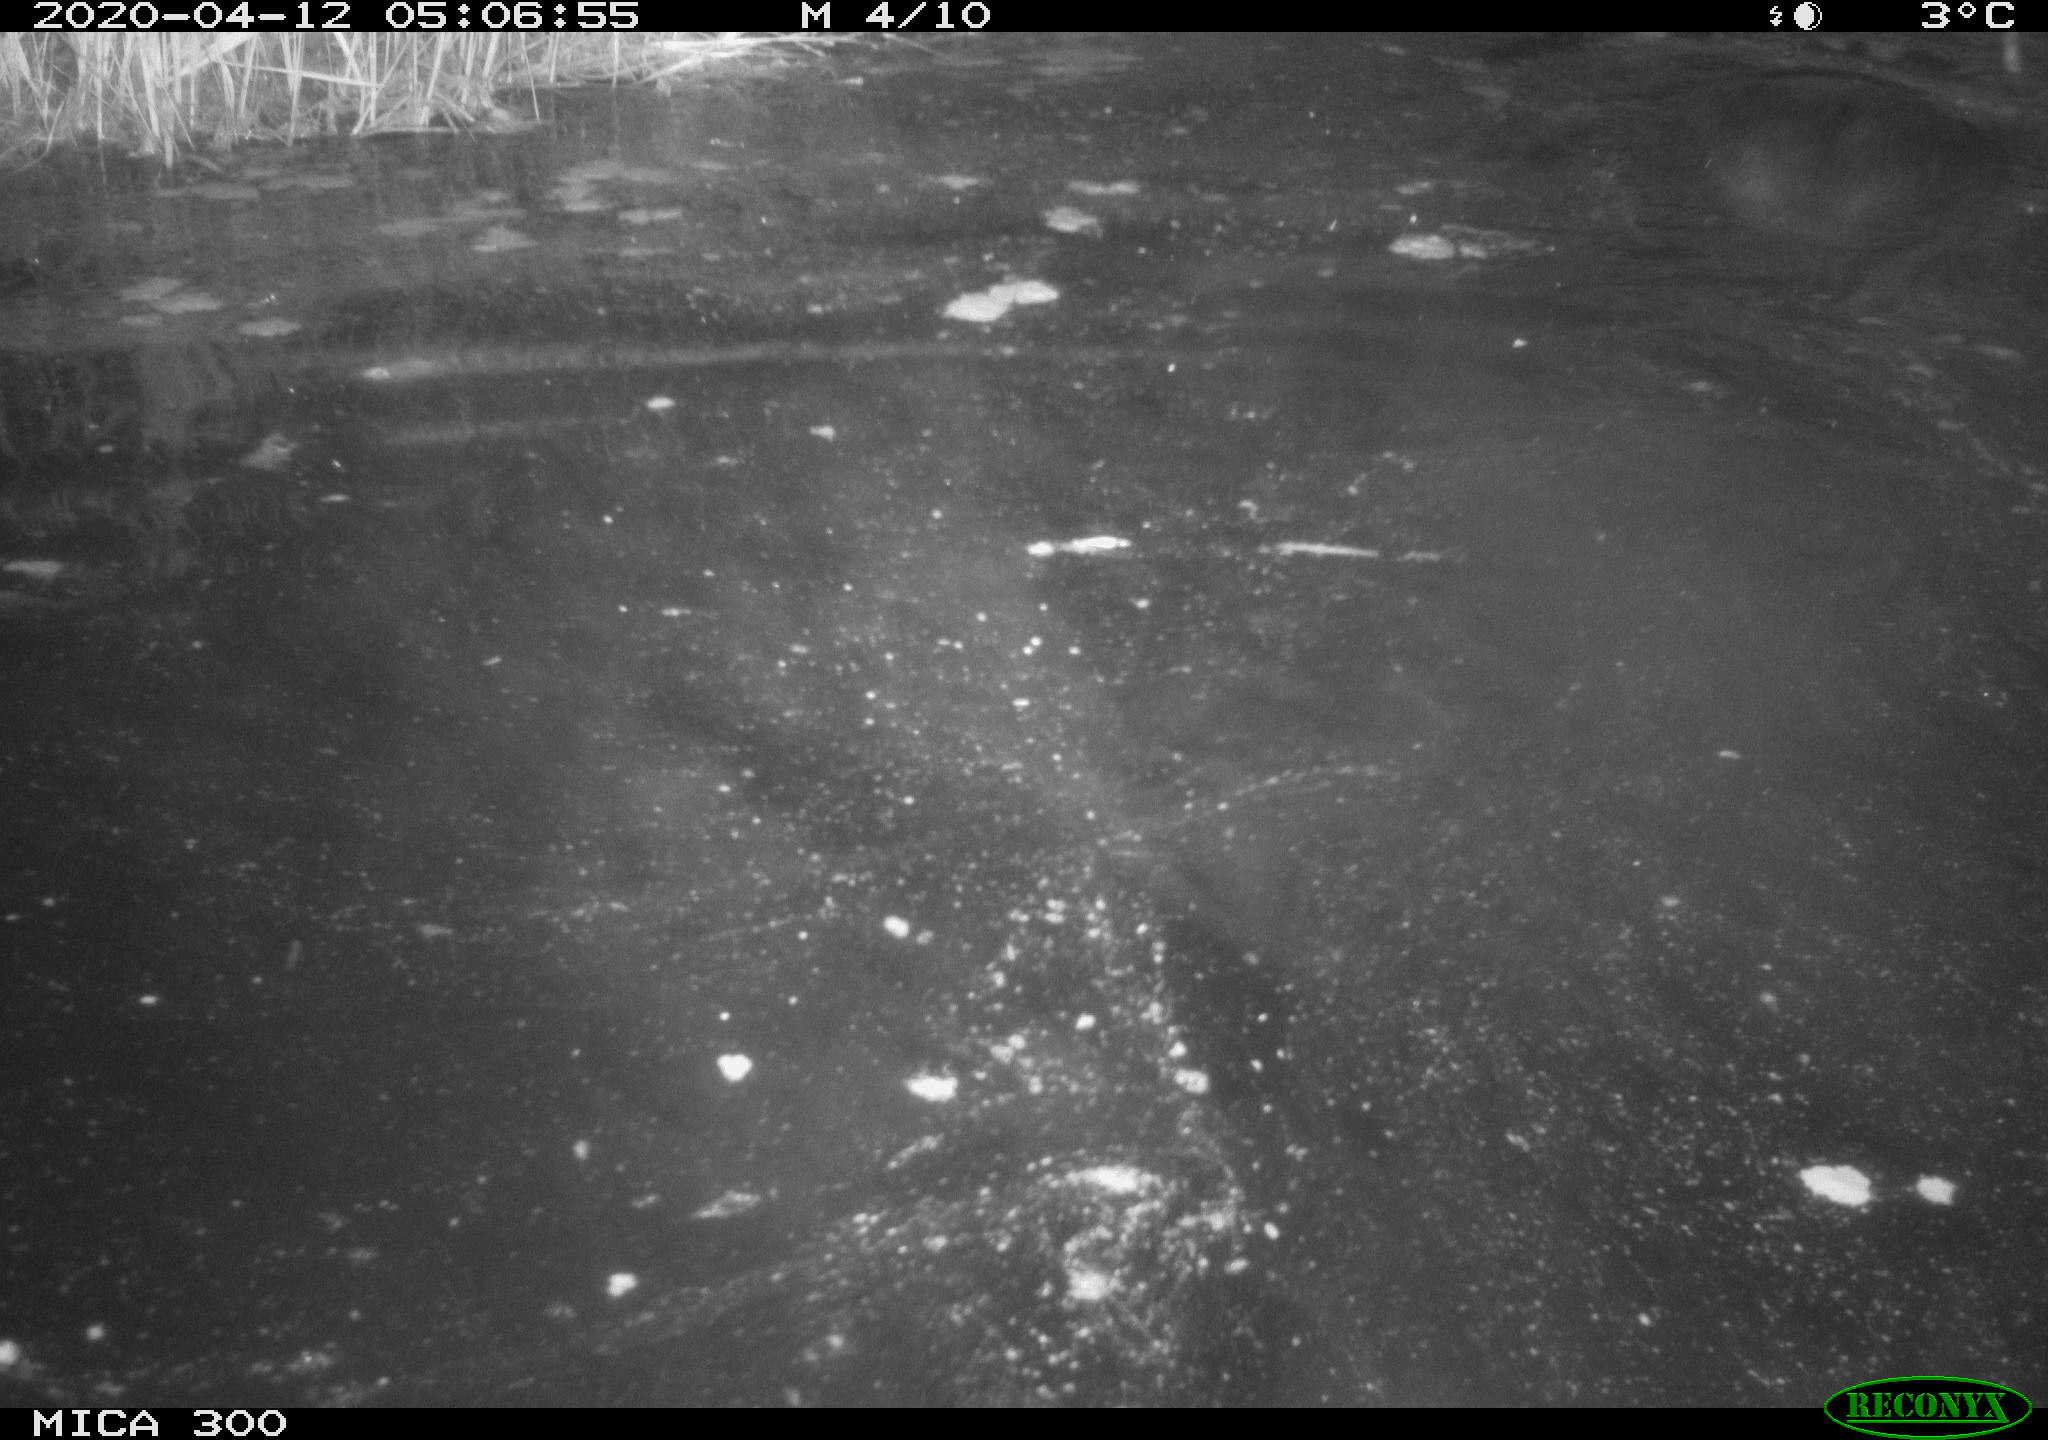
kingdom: Animalia
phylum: Chordata
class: Mammalia
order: Rodentia
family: Castoridae
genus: Castor
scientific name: Castor fiber
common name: Eurasian beaver
